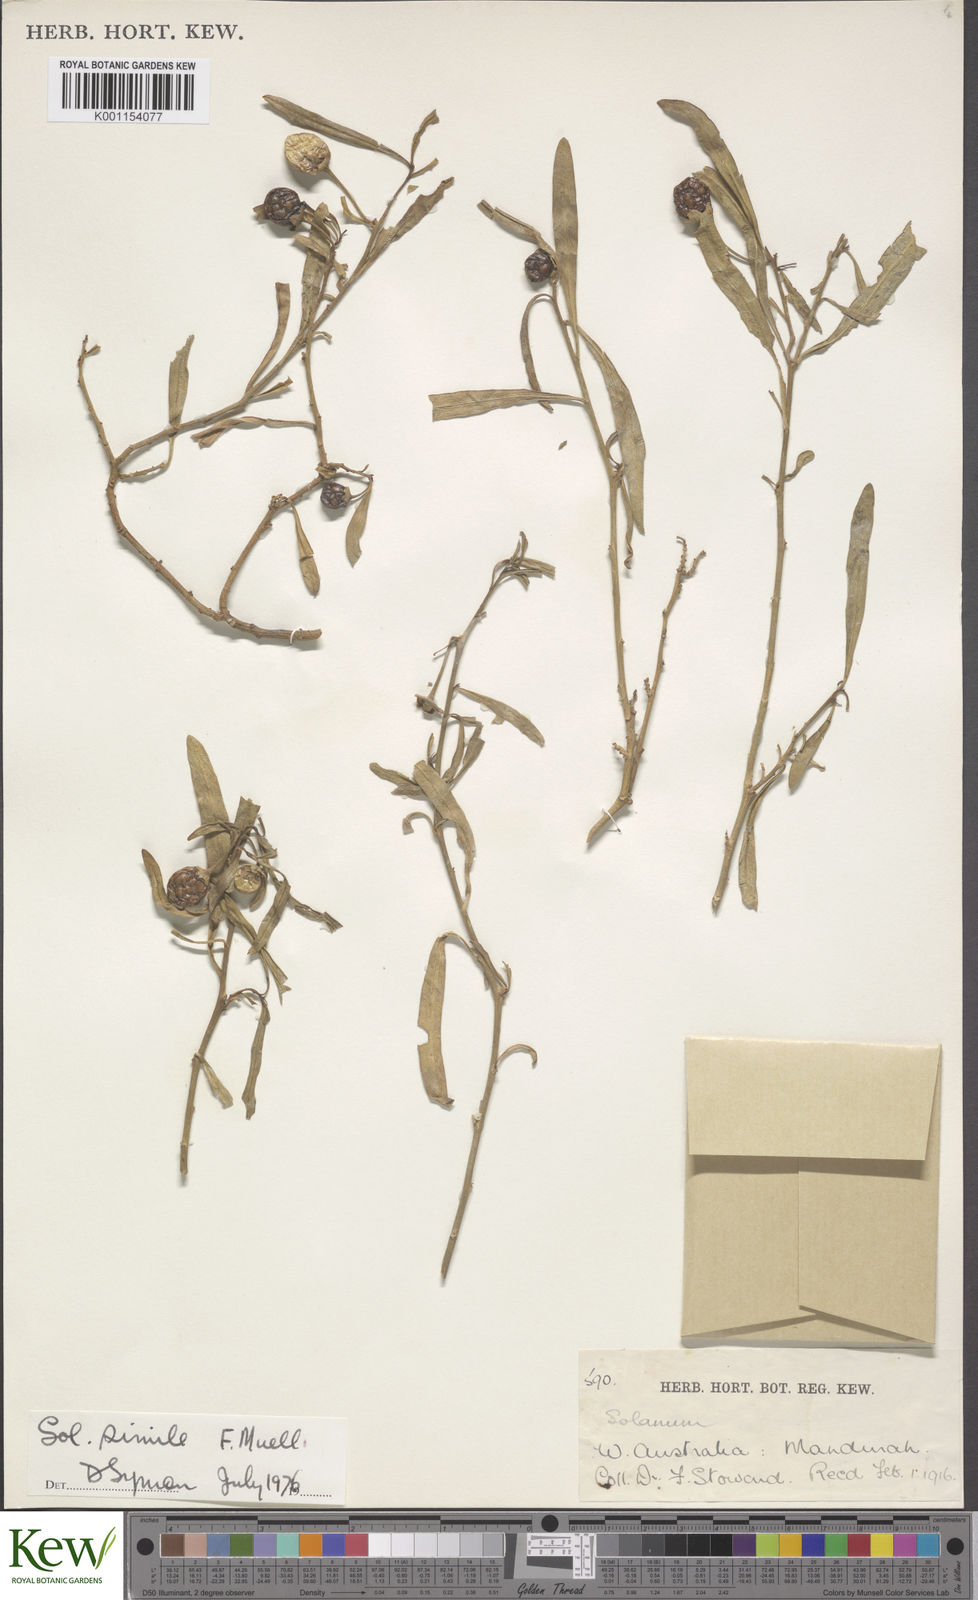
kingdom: Plantae
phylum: Tracheophyta
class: Magnoliopsida
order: Solanales
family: Solanaceae
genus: Solanum
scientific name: Solanum simile
